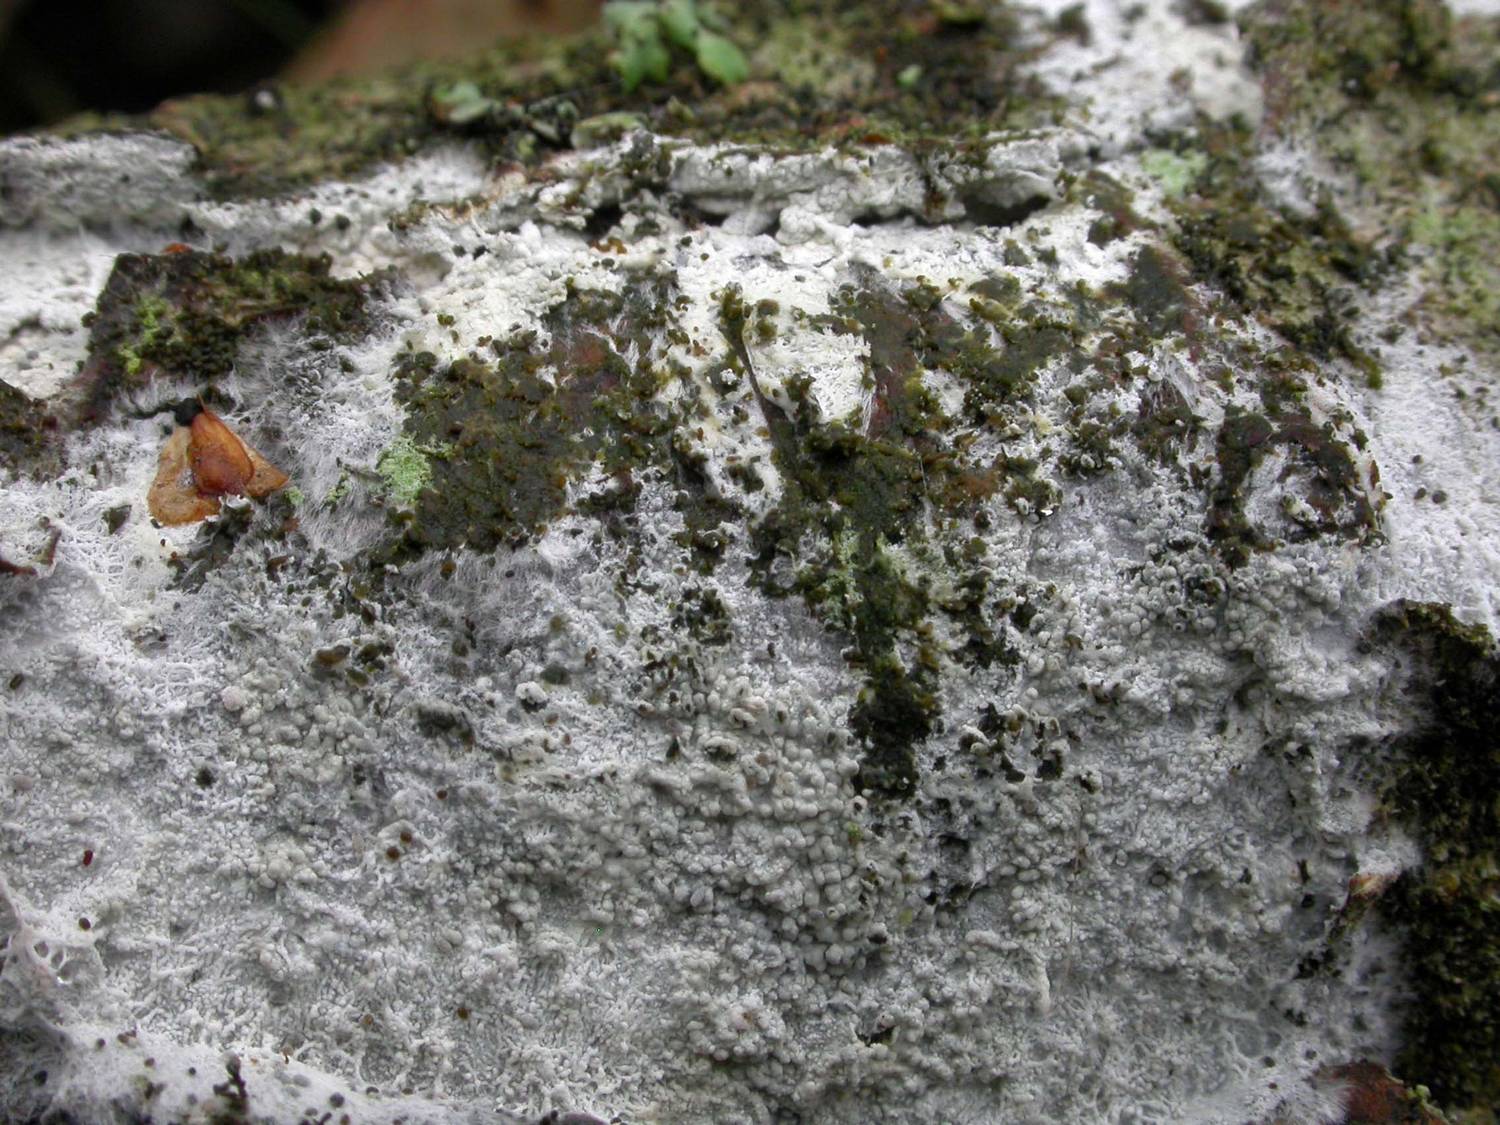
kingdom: Fungi
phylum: Basidiomycota
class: Agaricomycetes
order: Trechisporales
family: Sistotremataceae
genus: Trechispora
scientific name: Trechispora cohaerens
